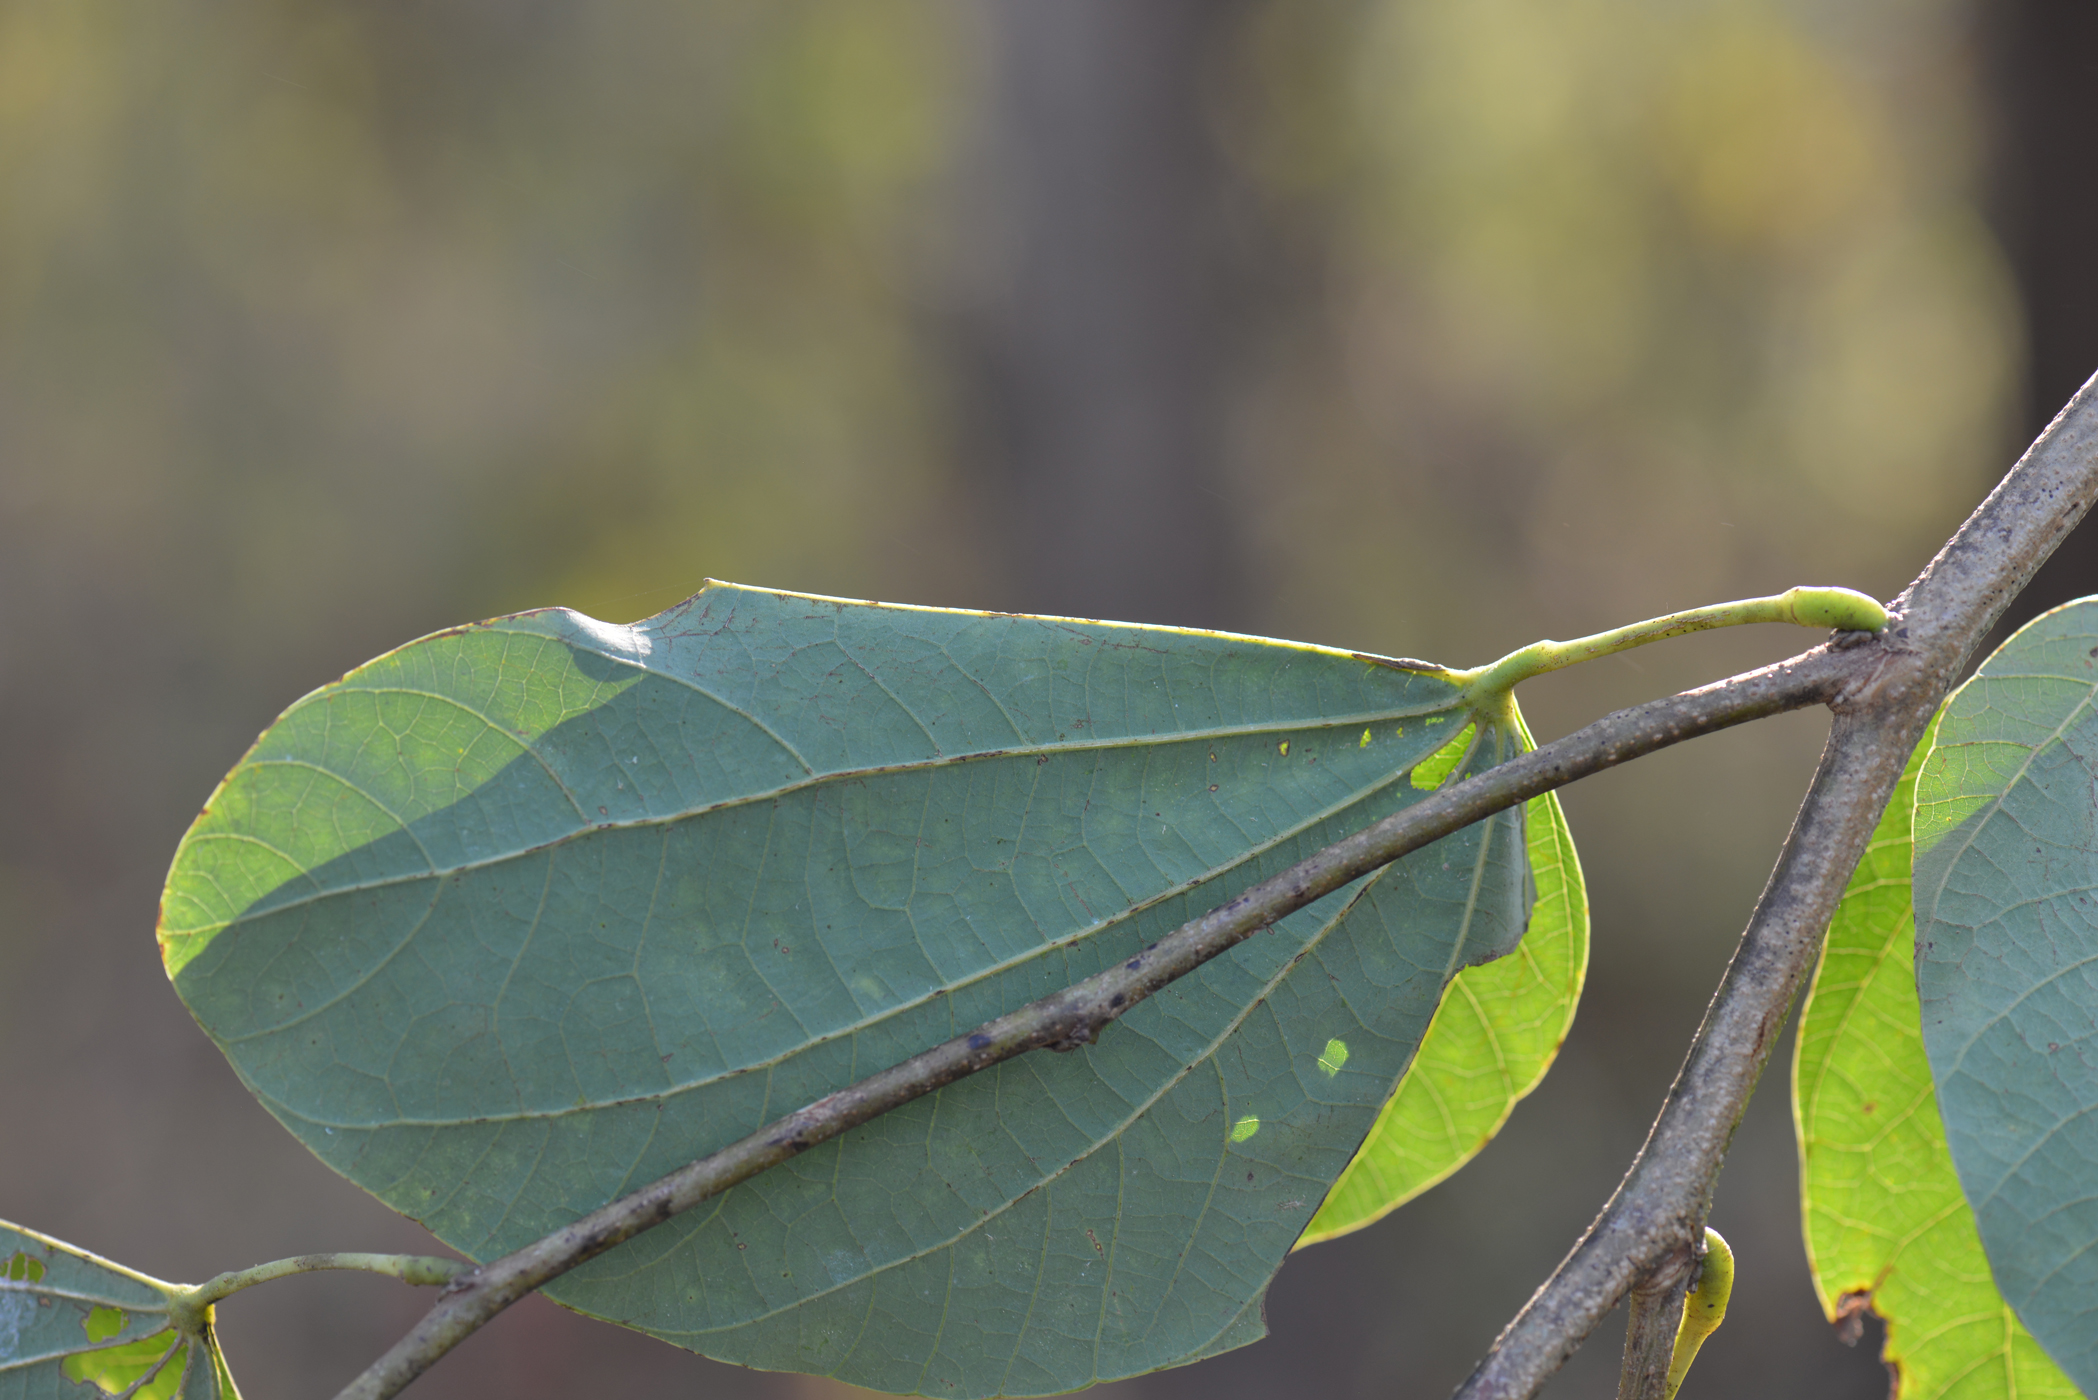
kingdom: Plantae
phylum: Tracheophyta
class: Magnoliopsida
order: Fabales
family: Fabaceae
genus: Bauhinia
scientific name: Bauhinia purpurea
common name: Butterfly-tree
